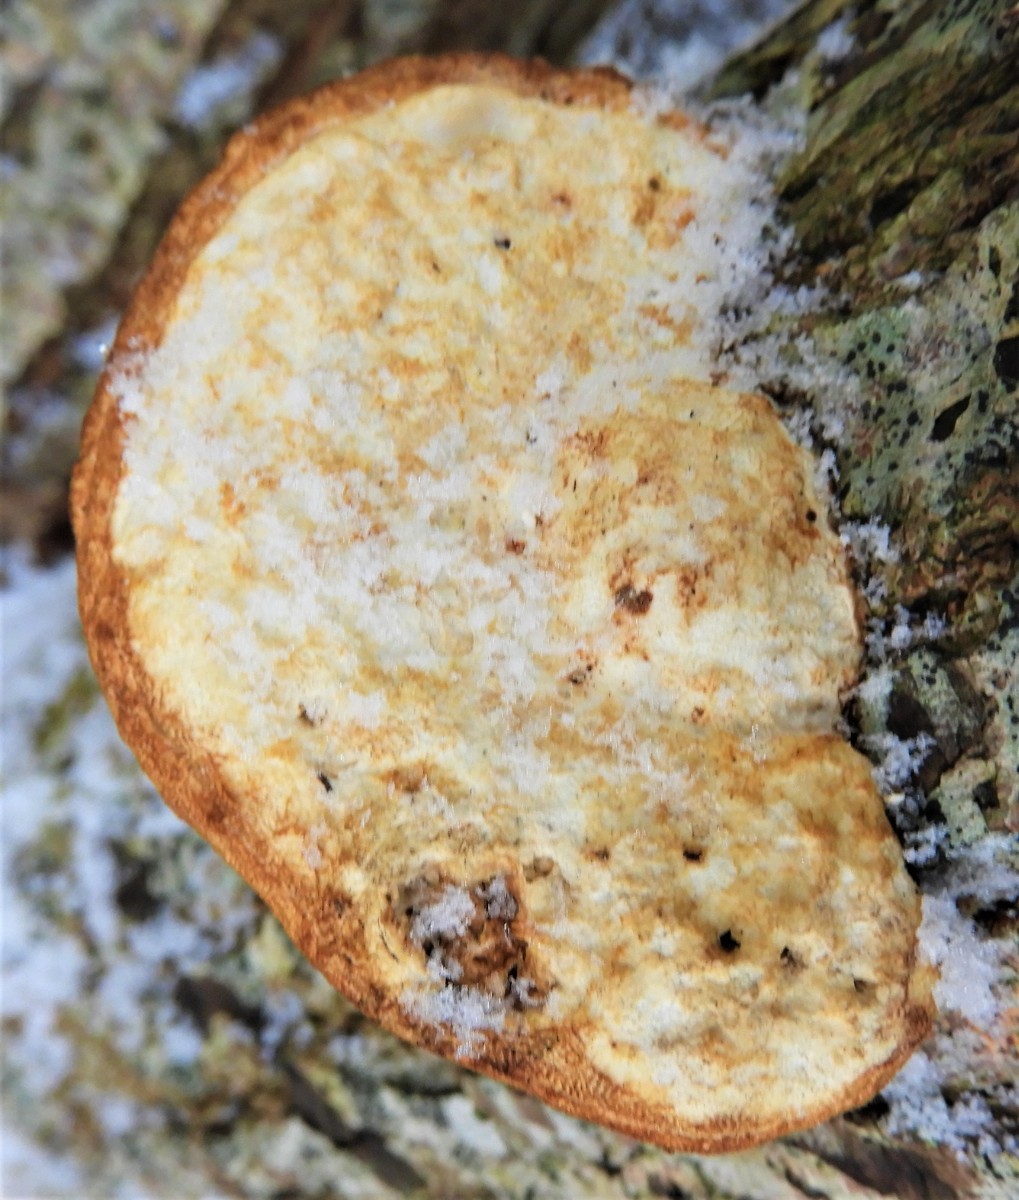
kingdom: Fungi
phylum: Basidiomycota
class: Agaricomycetes
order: Polyporales
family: Polyporaceae
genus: Daedaleopsis
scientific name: Daedaleopsis confragosa
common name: rødmende læderporesvamp
